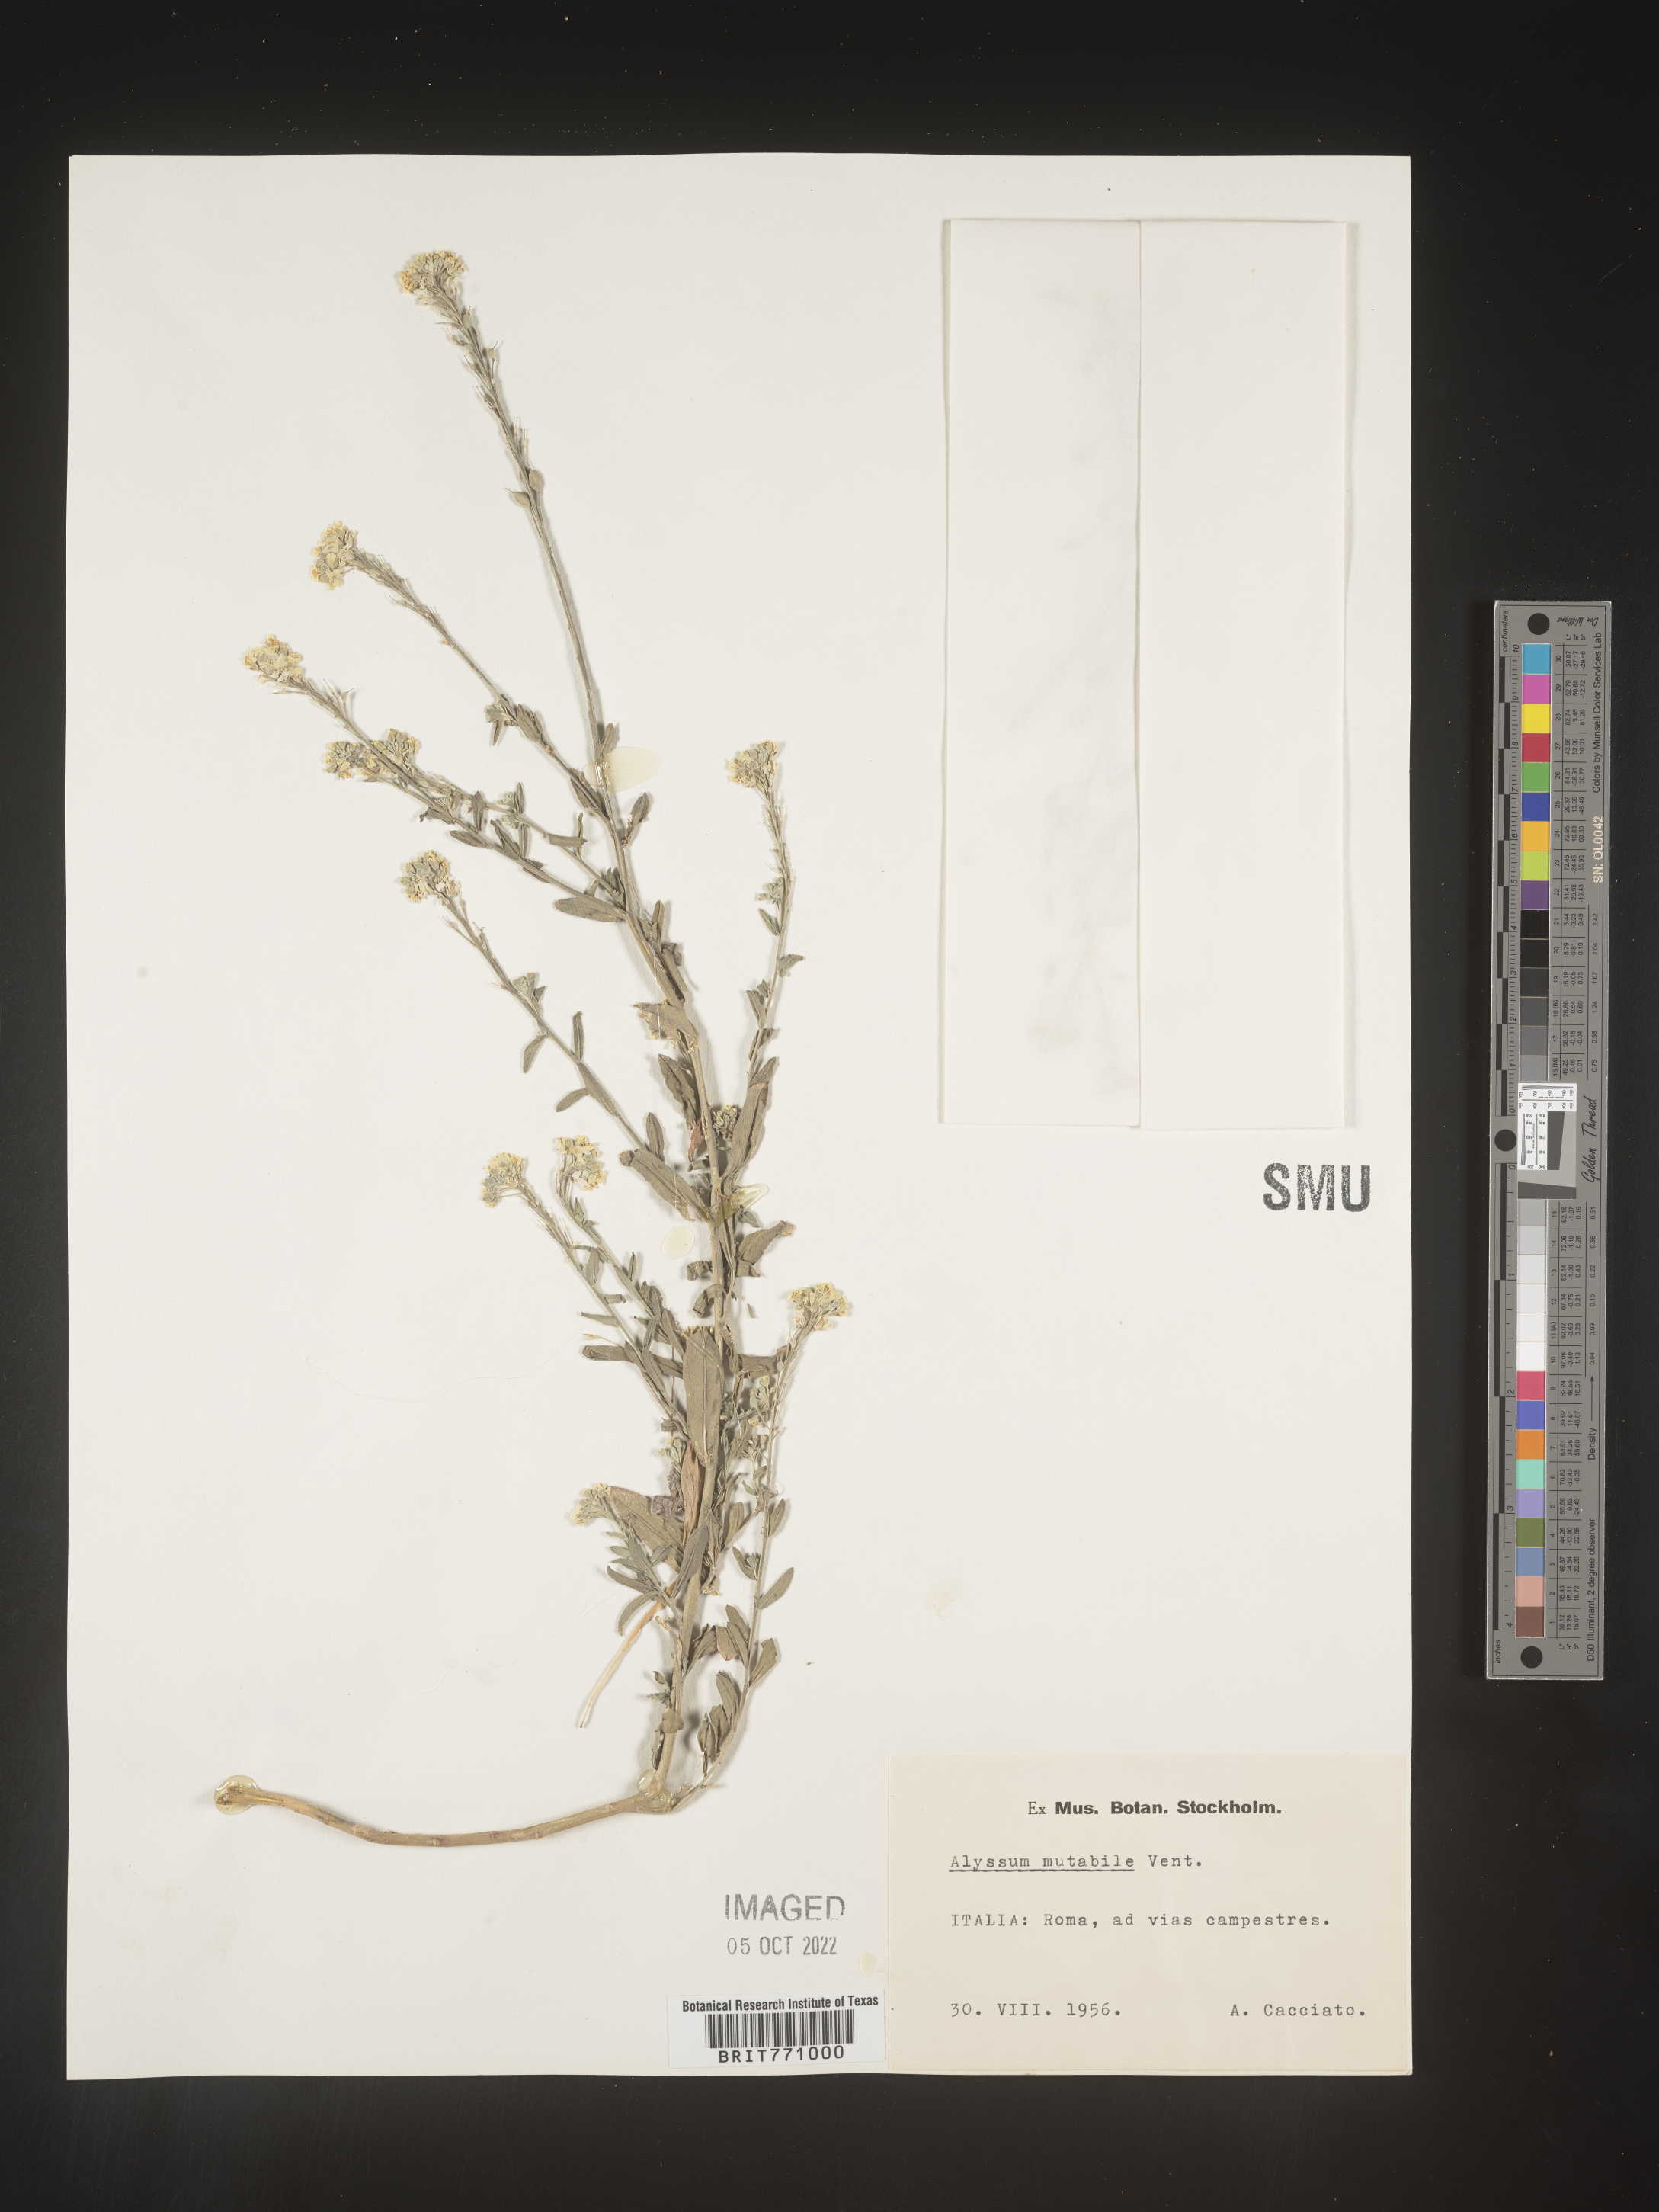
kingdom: Plantae
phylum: Tracheophyta
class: Magnoliopsida
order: Brassicales
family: Brassicaceae
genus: Alyssum
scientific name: Alyssum
